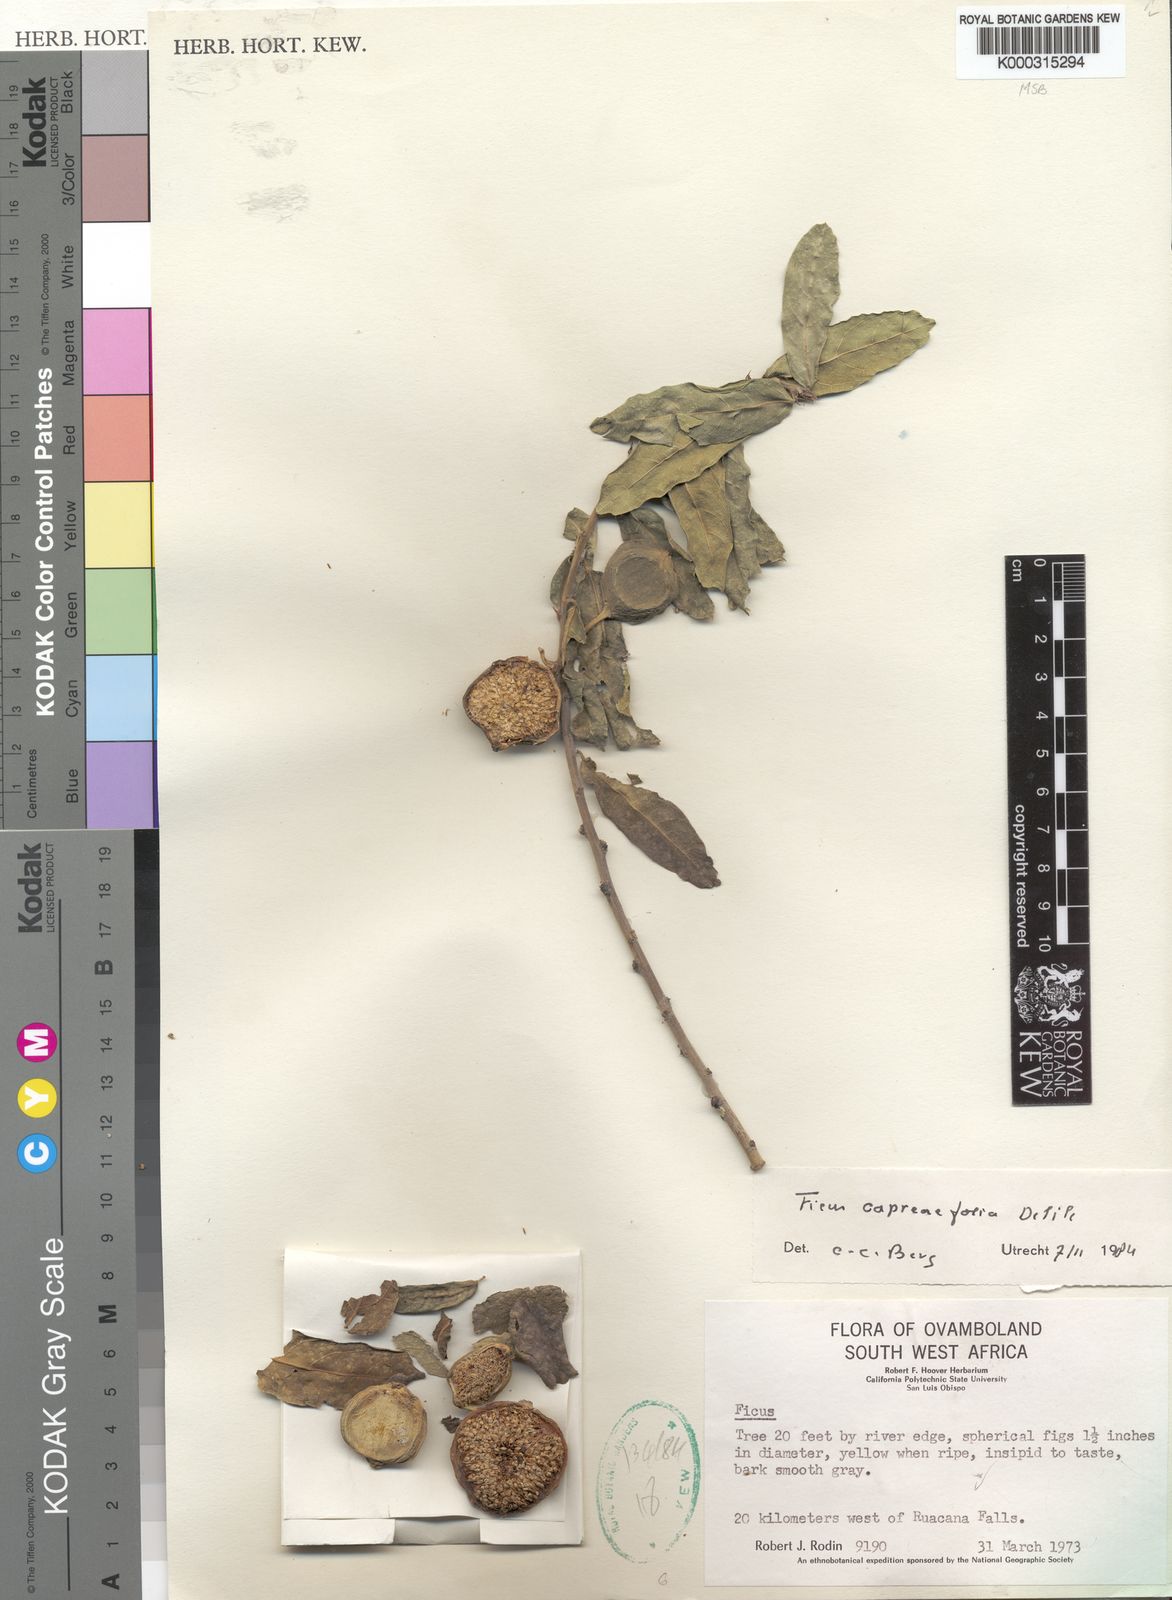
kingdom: Plantae
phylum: Tracheophyta
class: Magnoliopsida
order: Rosales
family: Moraceae
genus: Ficus
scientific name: Ficus capreifolia
